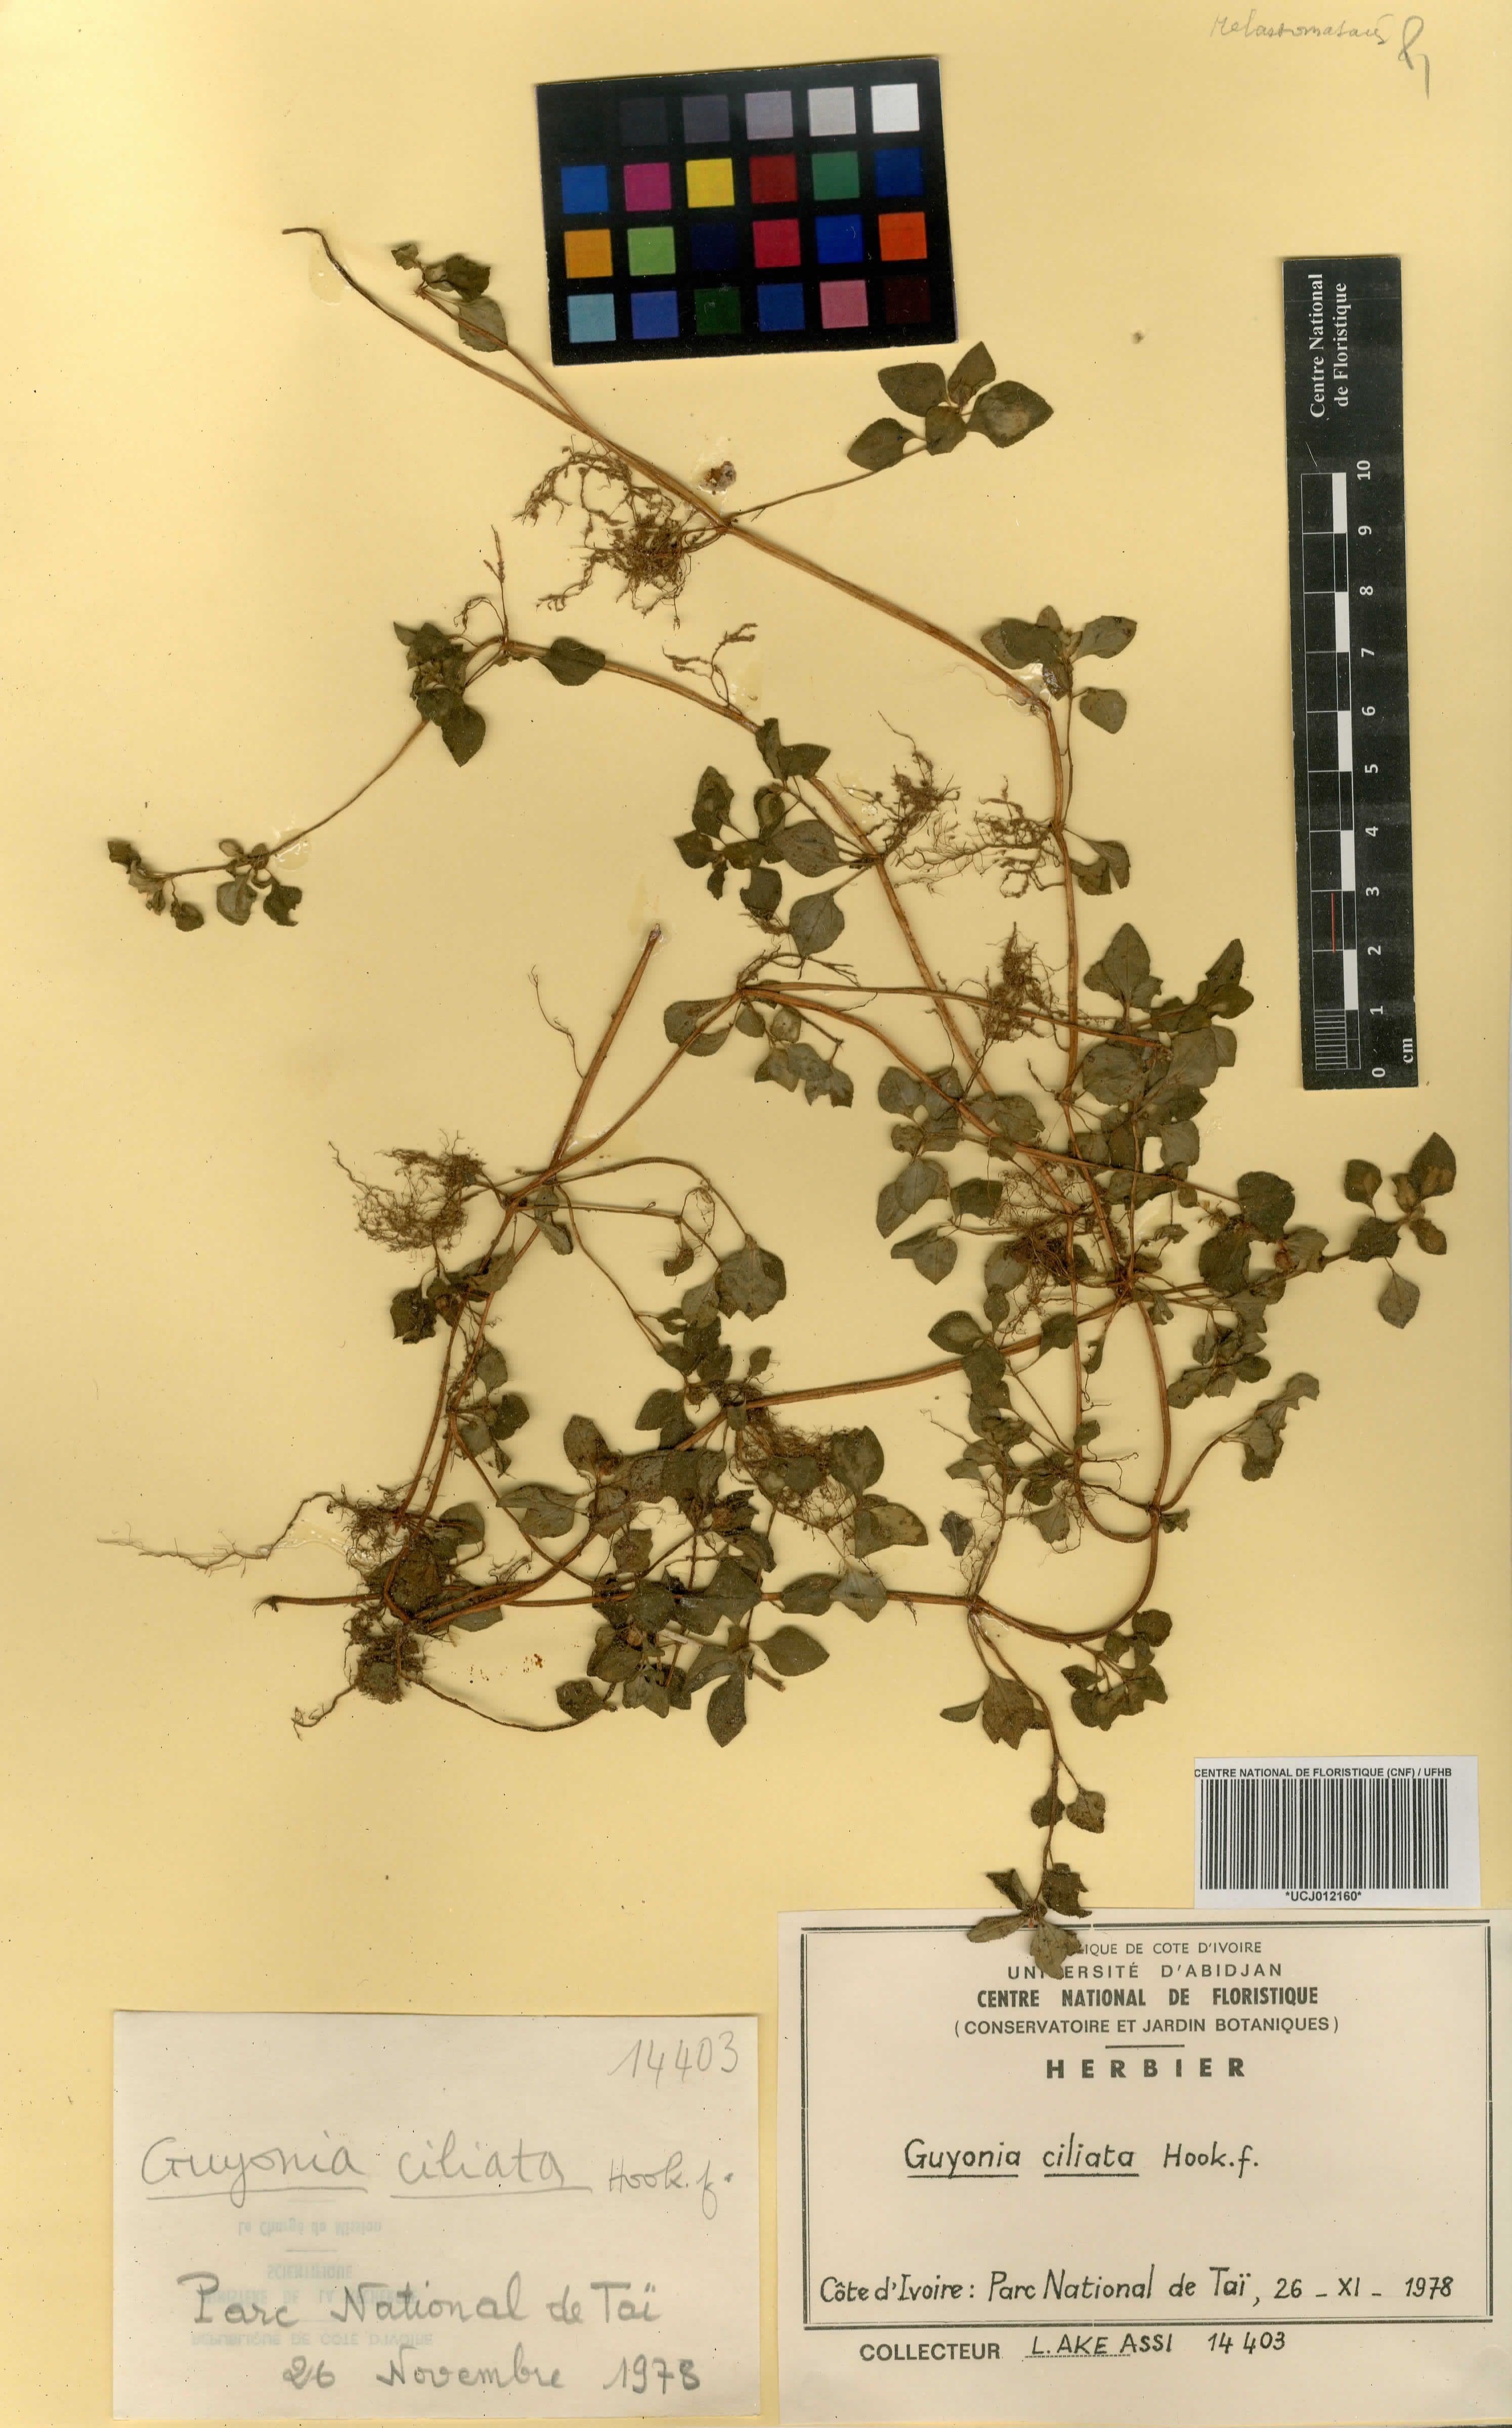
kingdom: Plantae
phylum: Tracheophyta
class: Magnoliopsida
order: Myrtales
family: Melastomataceae
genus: Guyonia
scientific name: Guyonia ciliata
